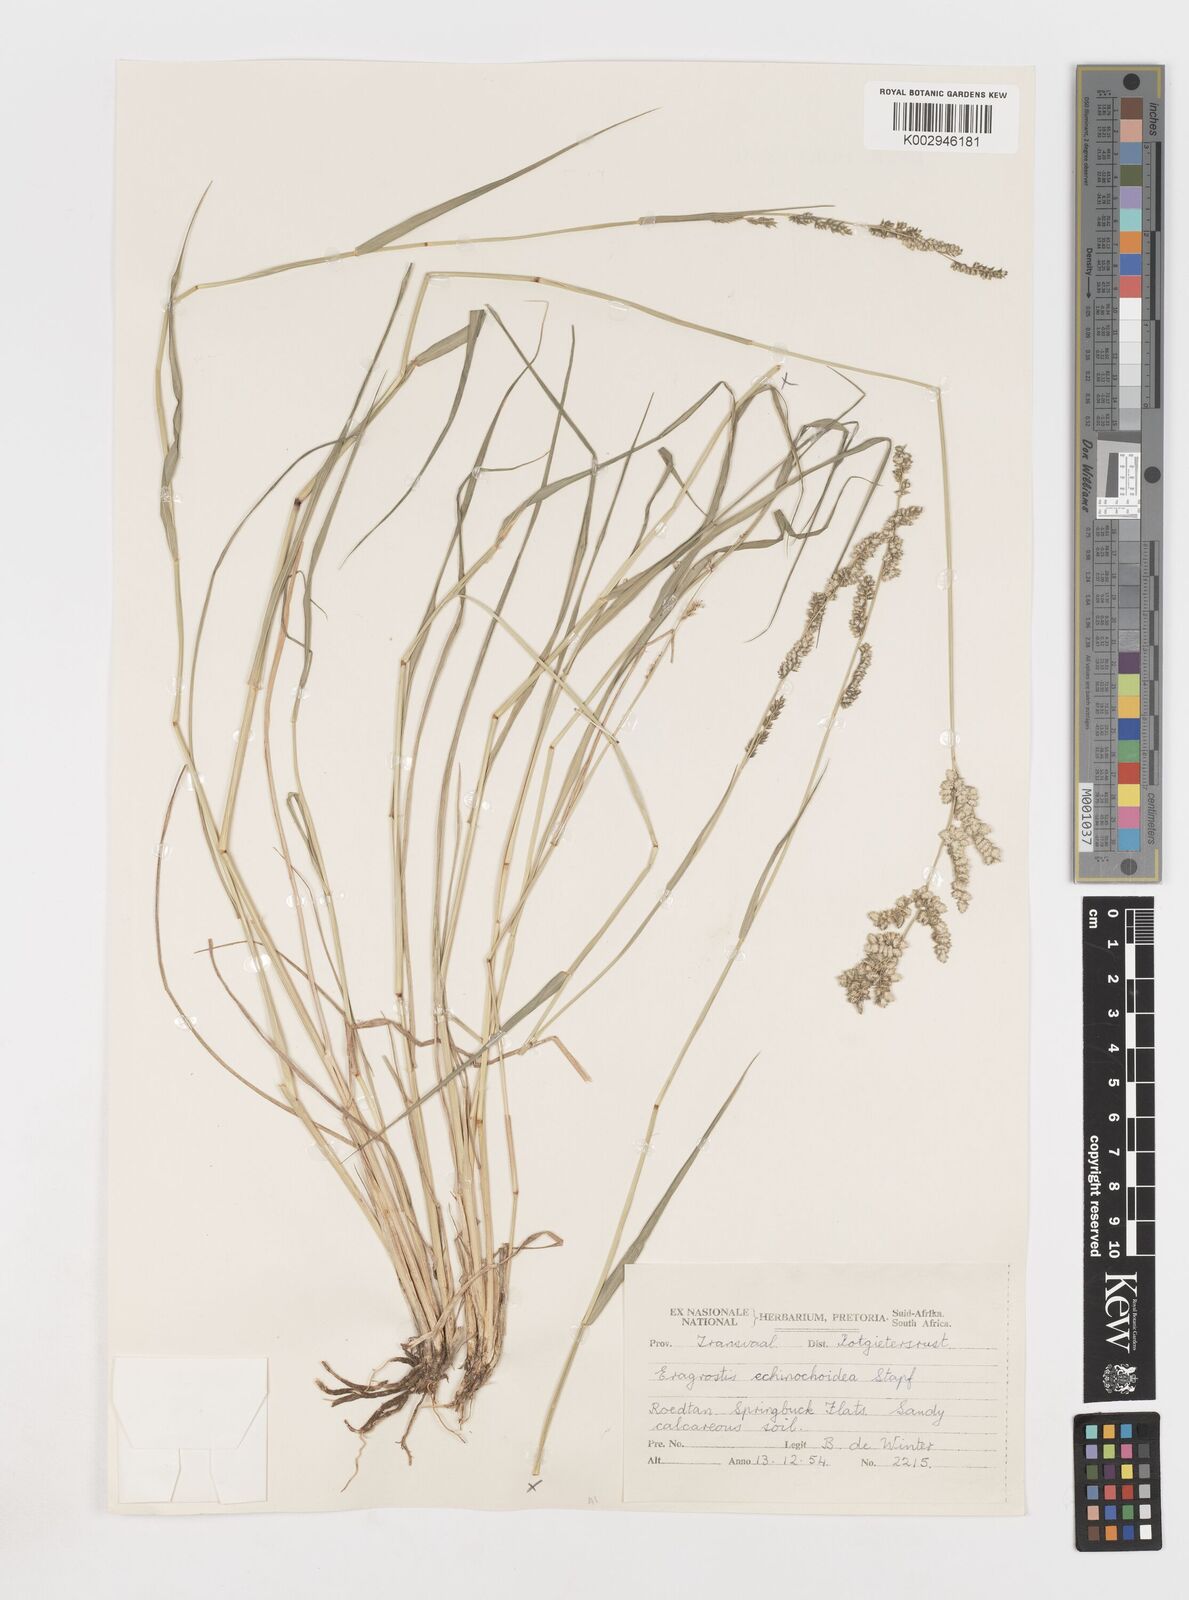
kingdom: Plantae
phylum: Tracheophyta
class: Liliopsida
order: Poales
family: Poaceae
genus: Eragrostis
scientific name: Eragrostis echinochloidea
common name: African lovegrass
